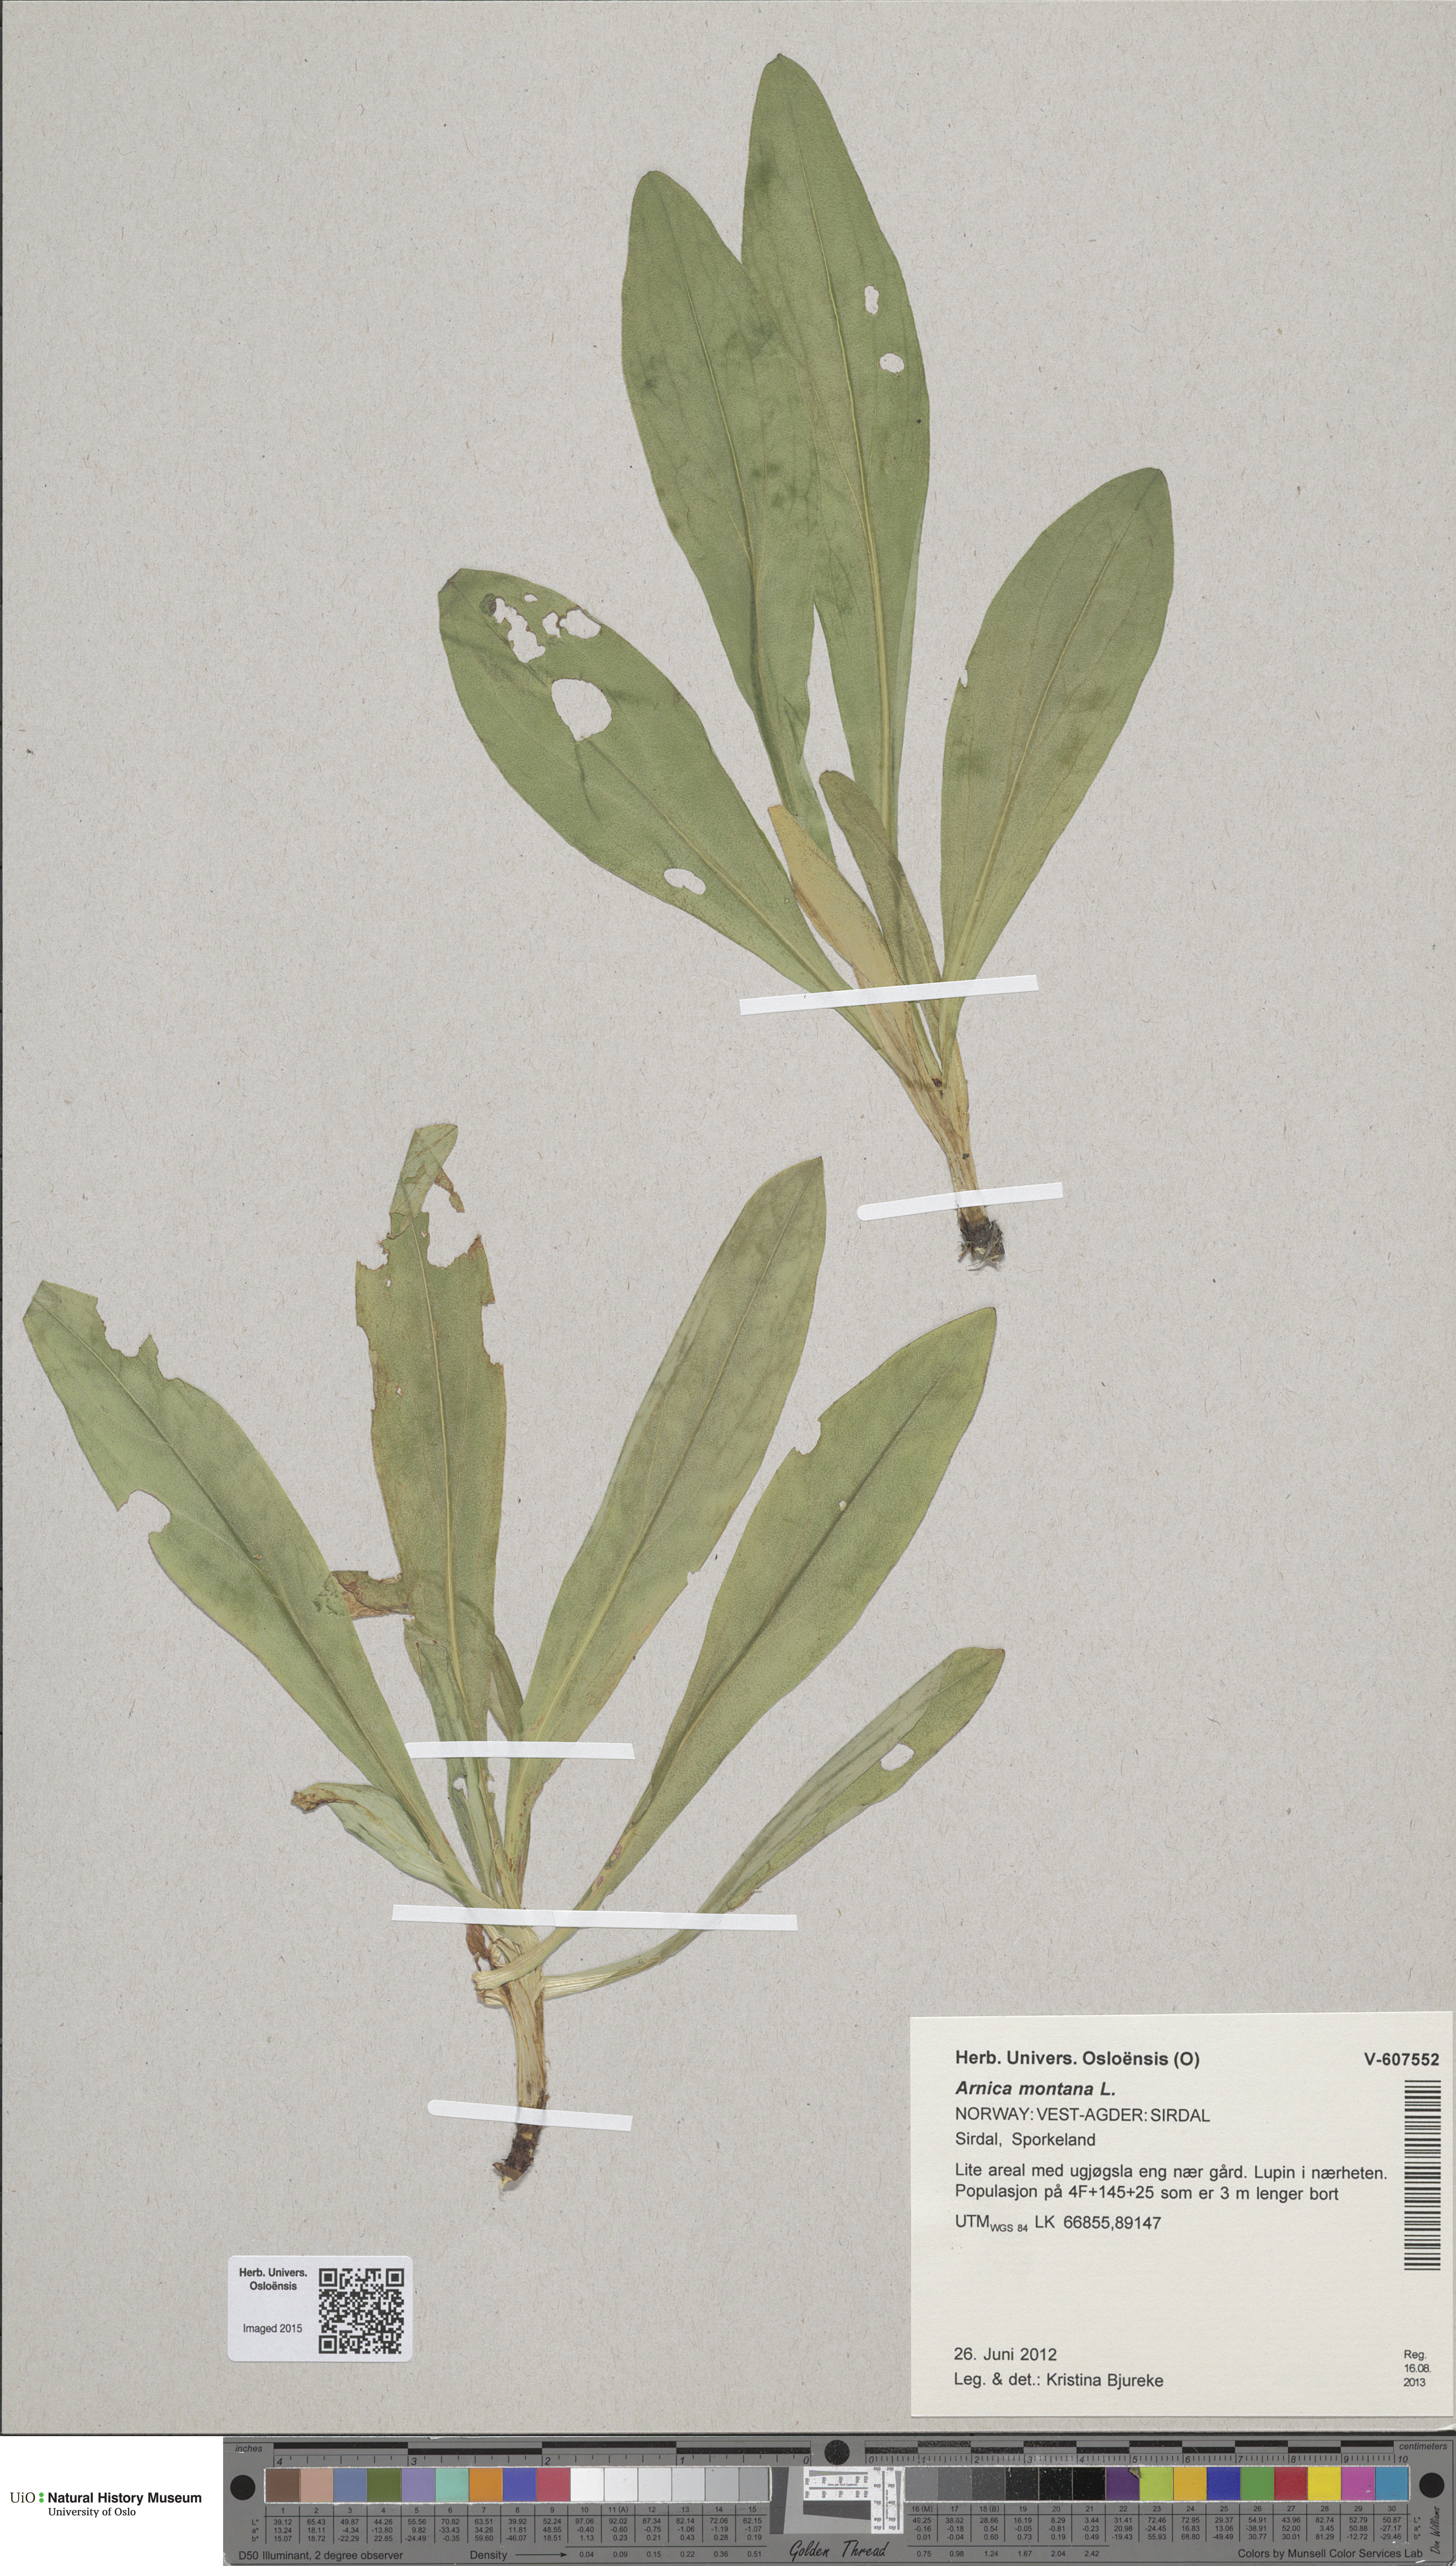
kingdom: Plantae
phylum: Tracheophyta
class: Magnoliopsida
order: Asterales
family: Asteraceae
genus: Arnica
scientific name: Arnica montana
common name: Leopard's bane
